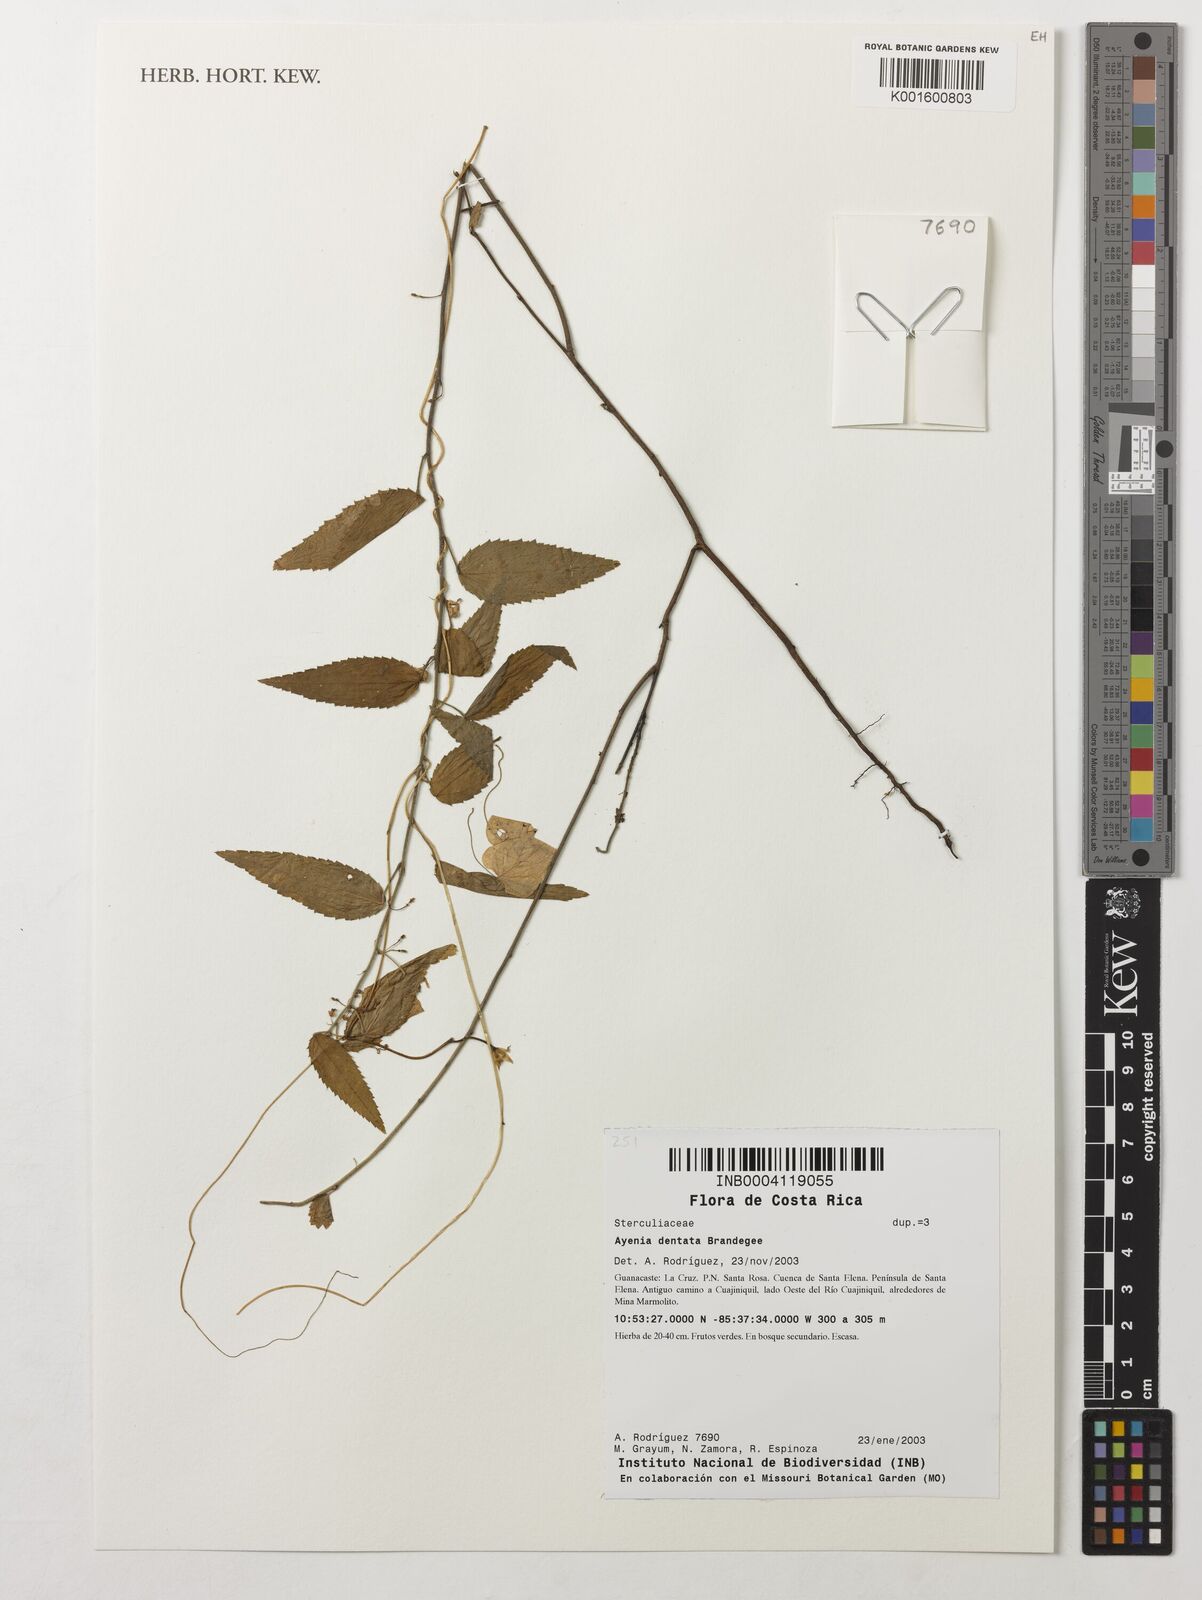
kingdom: Plantae
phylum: Tracheophyta
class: Magnoliopsida
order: Malvales
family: Malvaceae
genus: Ayenia
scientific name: Ayenia dentata
